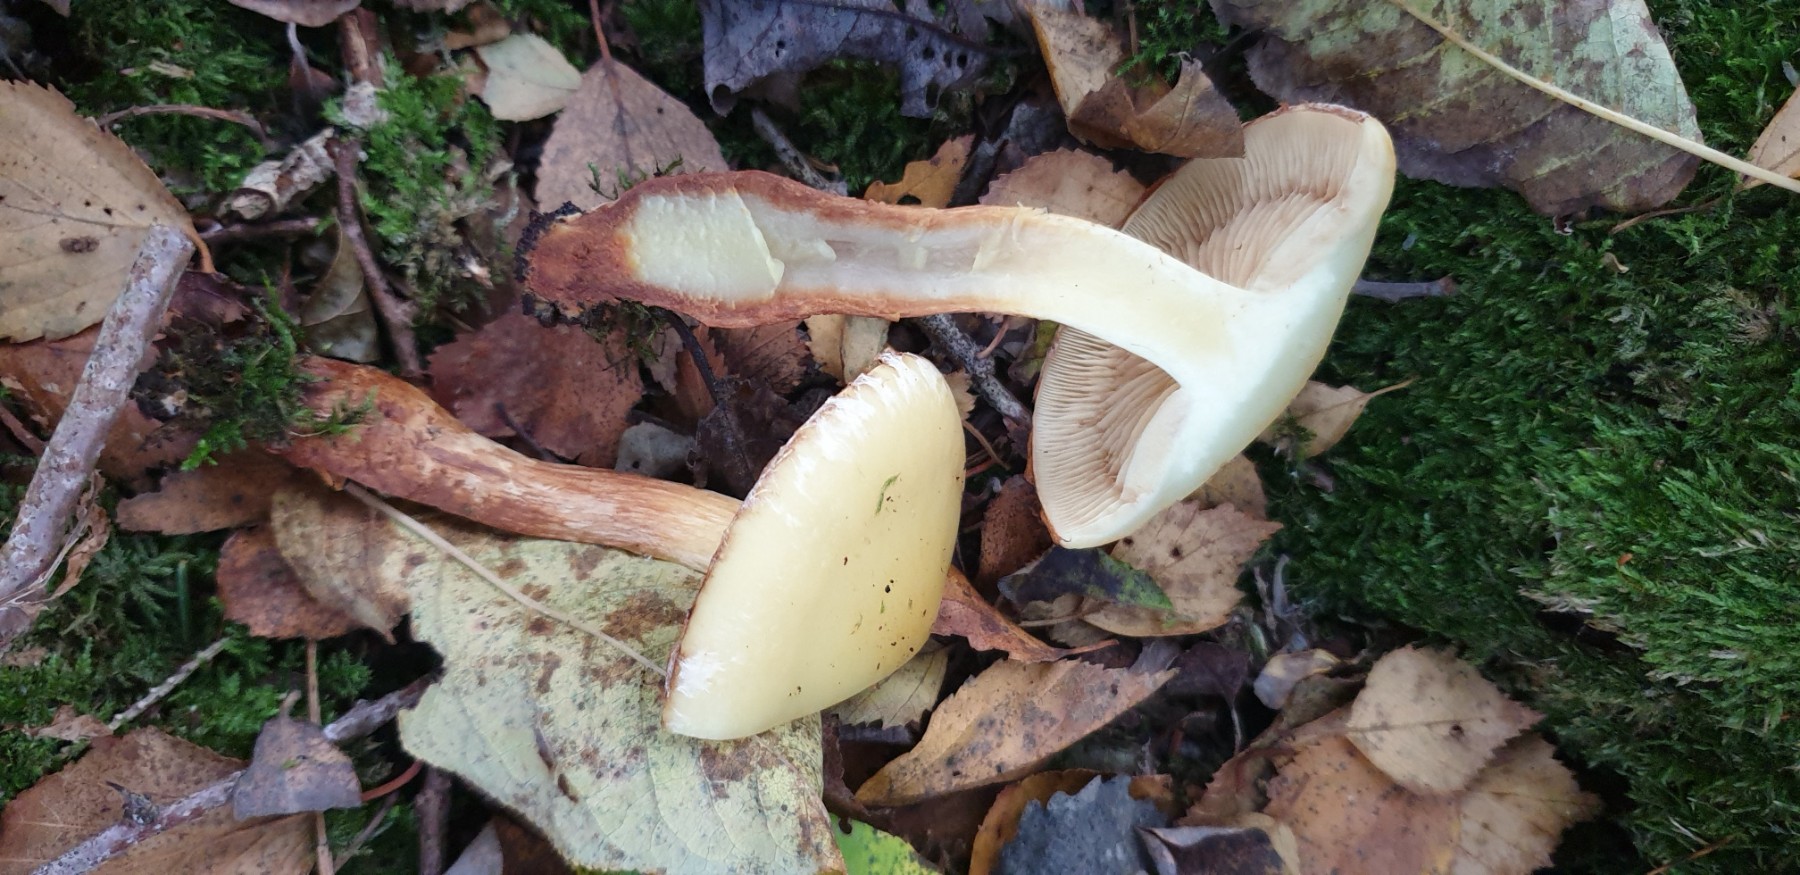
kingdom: Fungi
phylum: Basidiomycota
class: Agaricomycetes
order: Agaricales
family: Hymenogastraceae
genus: Flammula
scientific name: Flammula alnicola
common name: elle-skælhat
